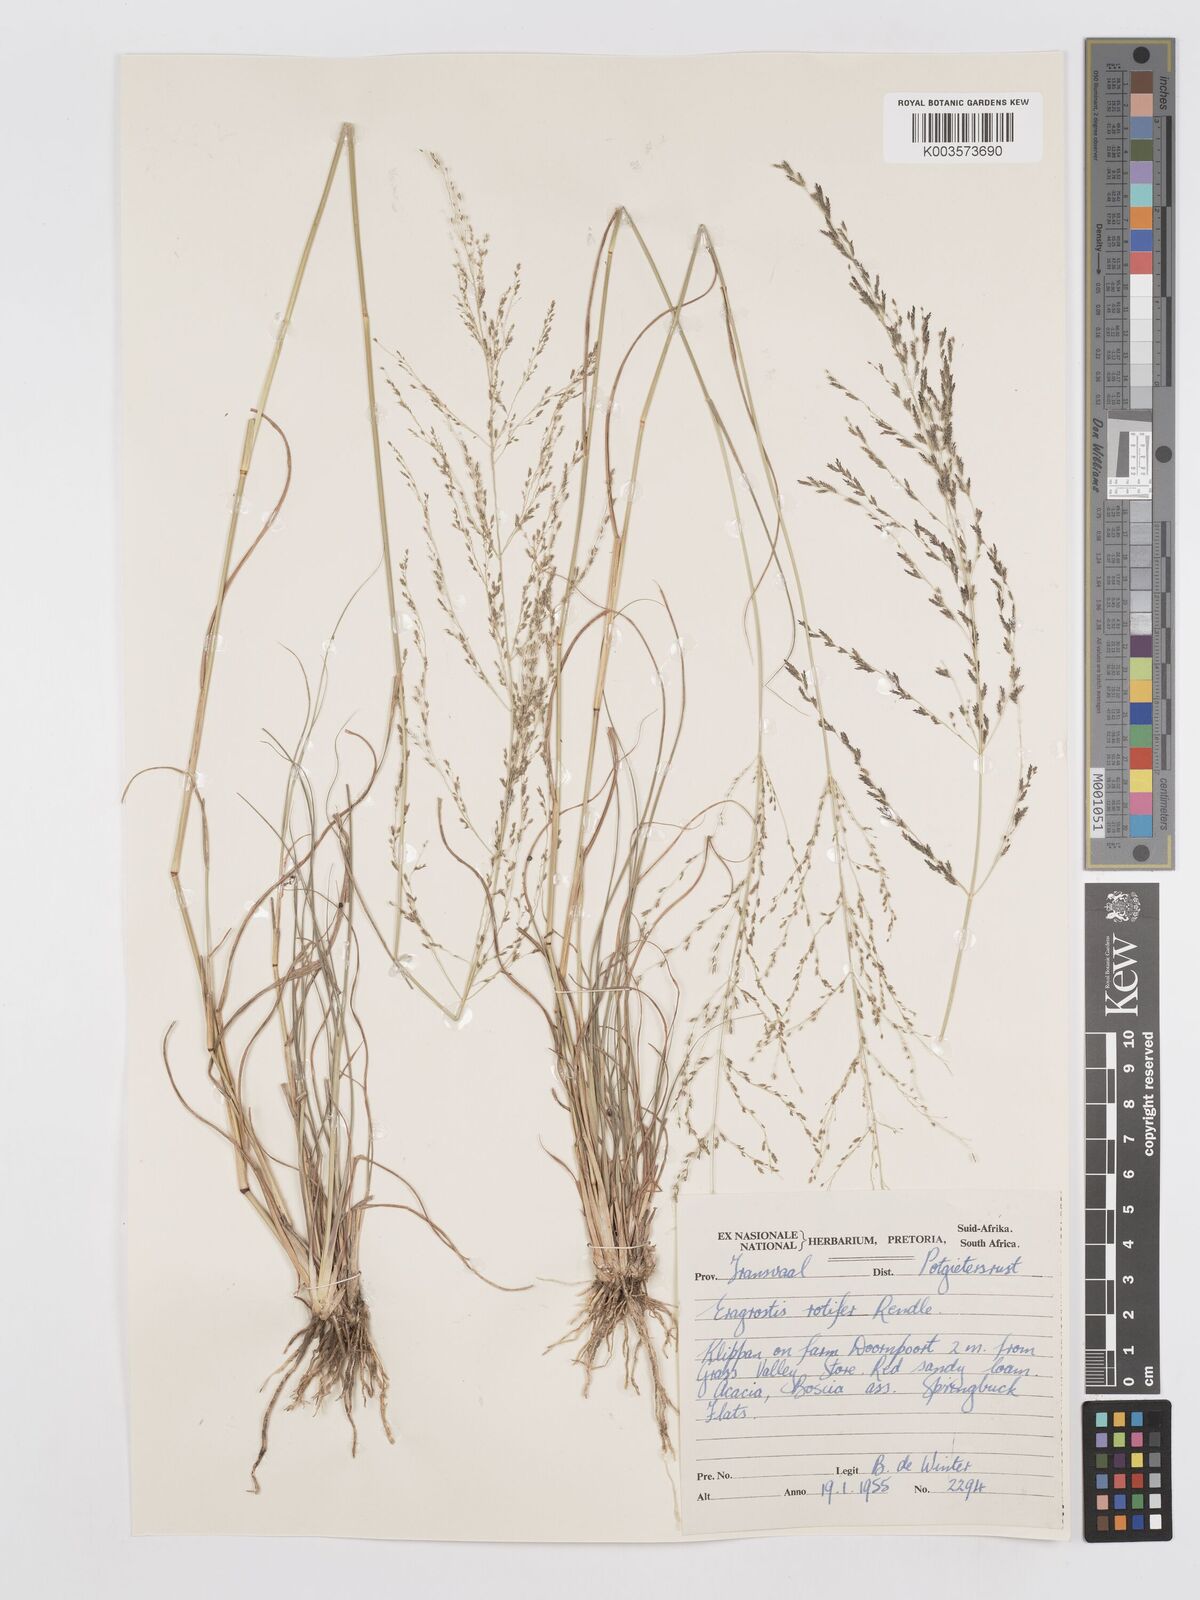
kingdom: Plantae
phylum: Tracheophyta
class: Liliopsida
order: Poales
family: Poaceae
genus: Eragrostis
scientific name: Eragrostis rotifer
